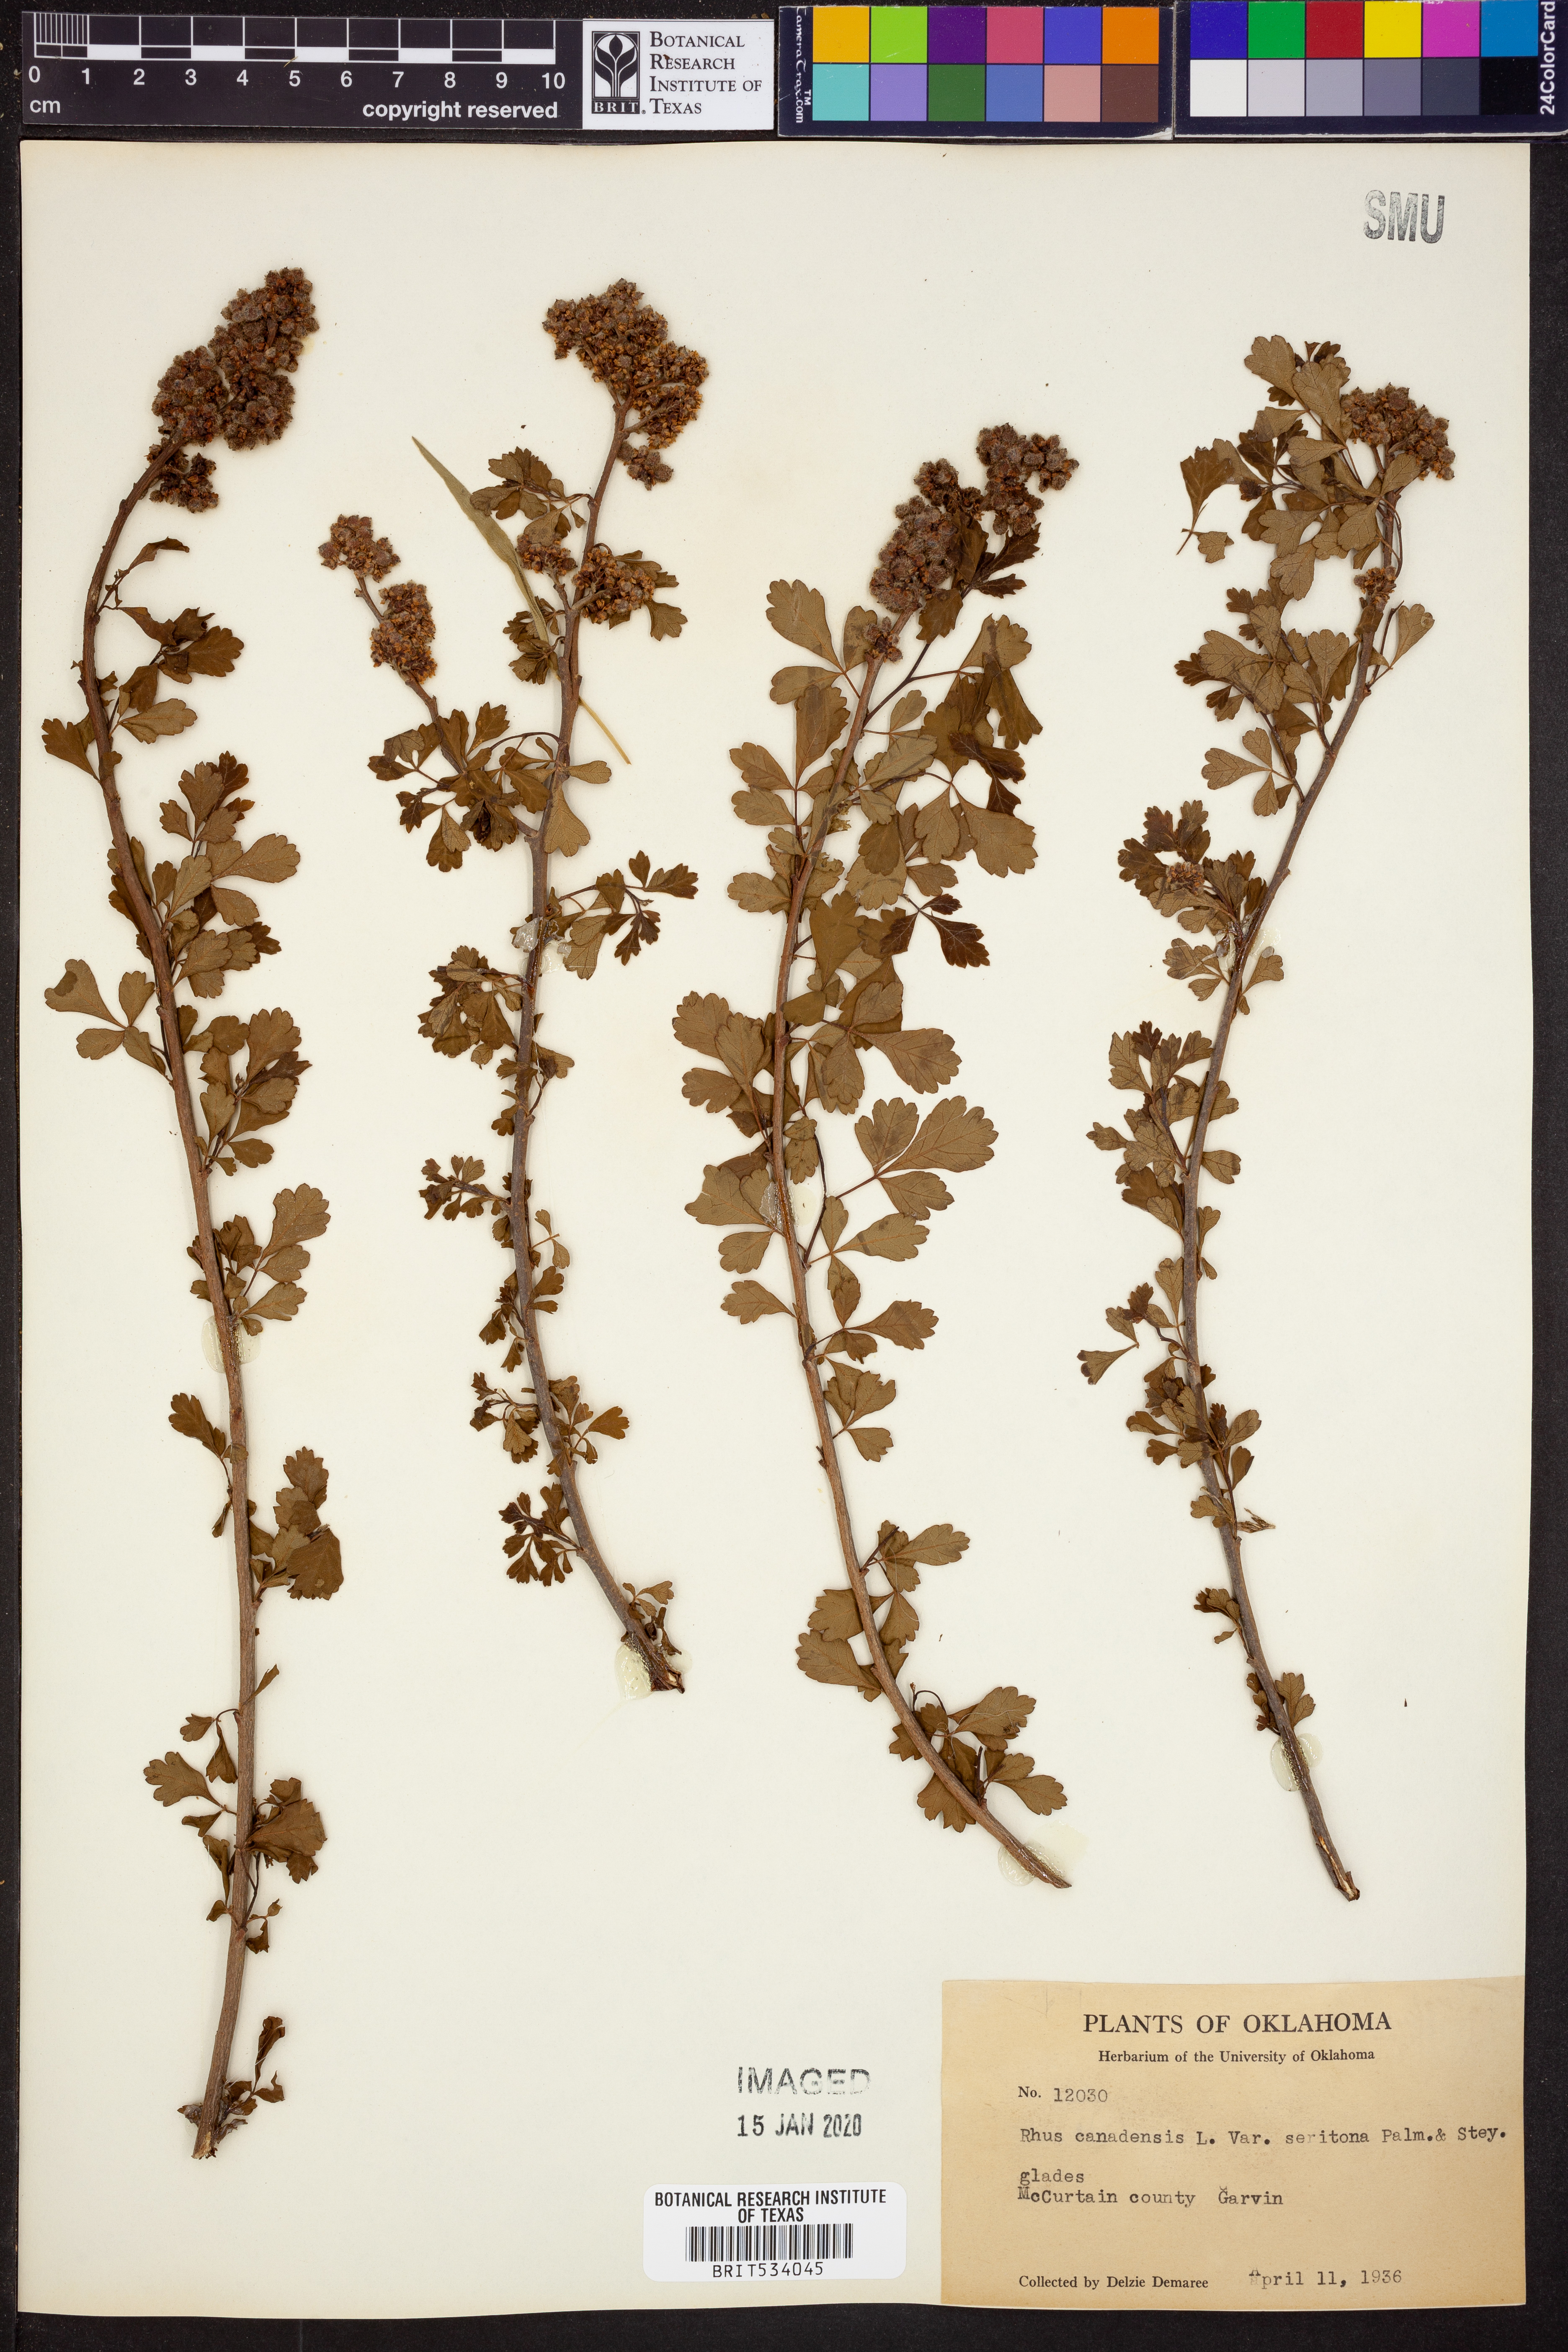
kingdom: Plantae
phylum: Tracheophyta
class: Magnoliopsida
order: Sapindales
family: Anacardiaceae
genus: Rhus
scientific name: Rhus aromatica
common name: Aromatic sumac
